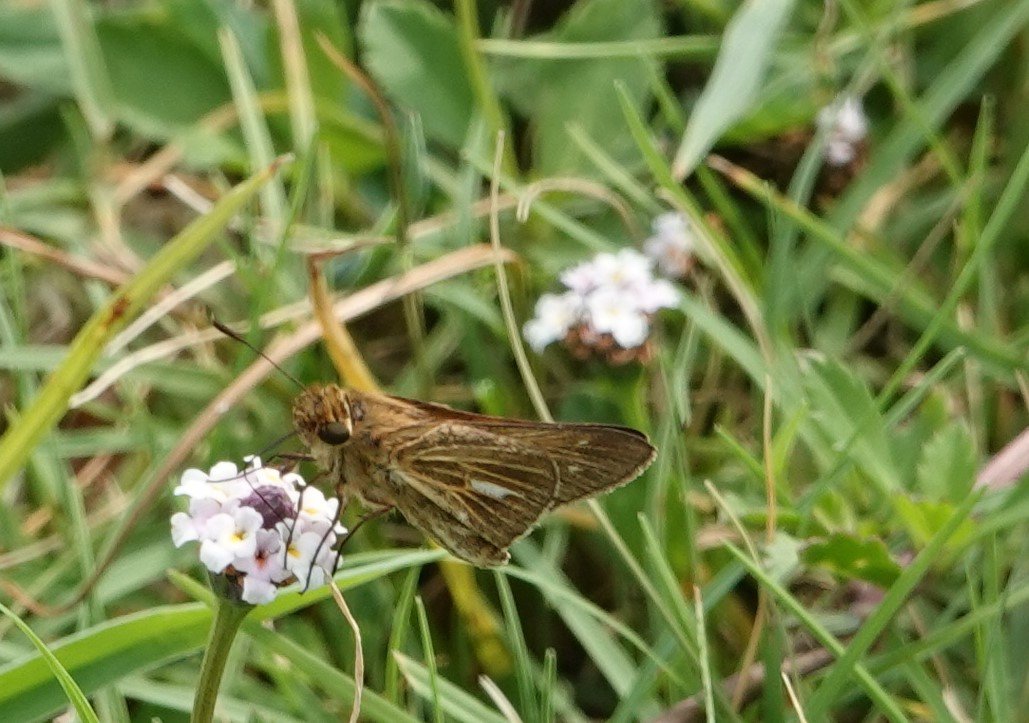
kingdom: Animalia
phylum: Arthropoda
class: Insecta
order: Lepidoptera
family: Hesperiidae
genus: Panoquina
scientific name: Panoquina panoquin
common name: Salt Marsh Skipper
